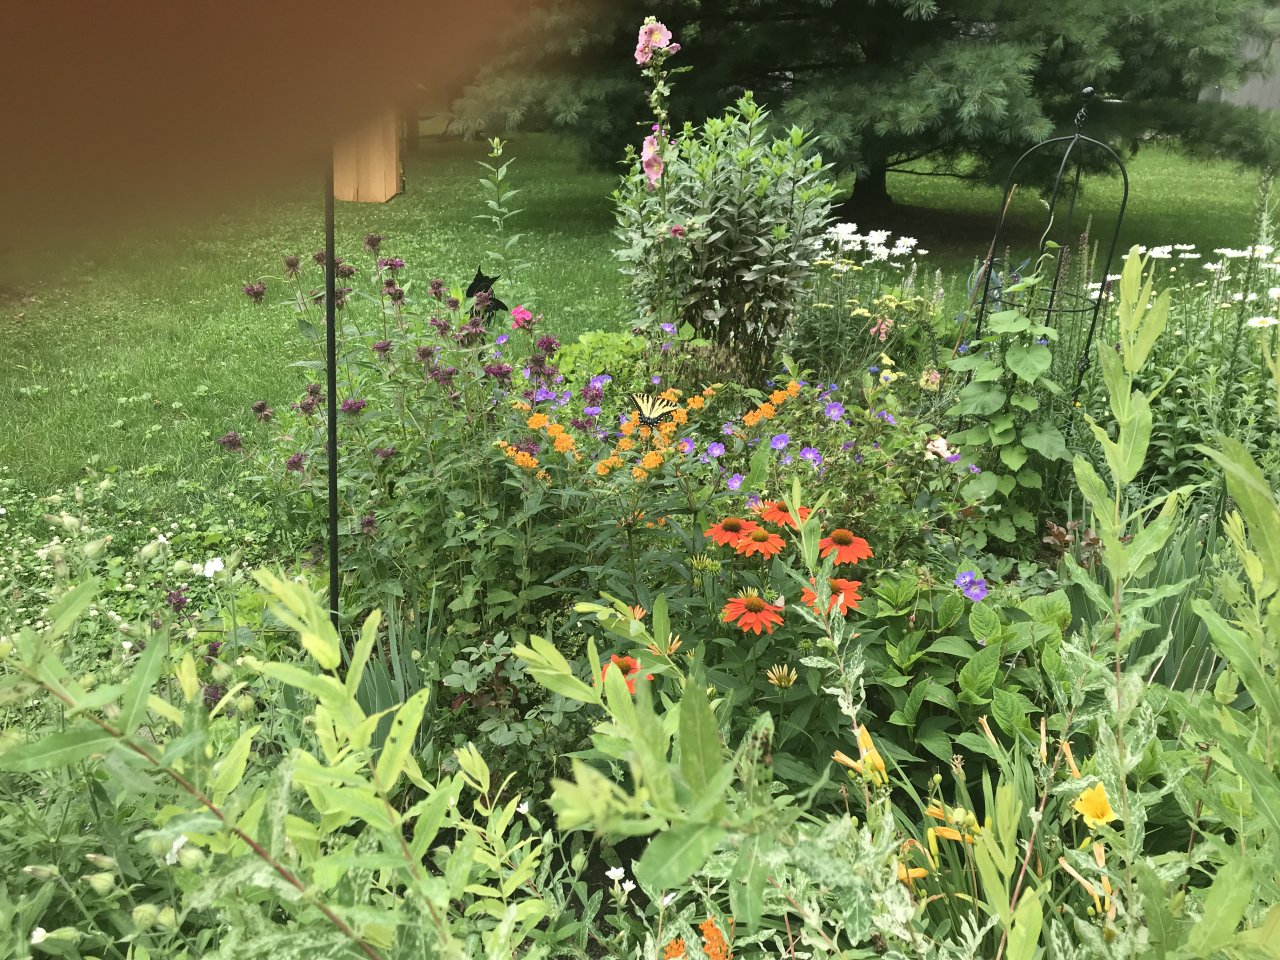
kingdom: Animalia
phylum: Arthropoda
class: Insecta
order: Lepidoptera
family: Papilionidae
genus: Pterourus
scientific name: Pterourus
